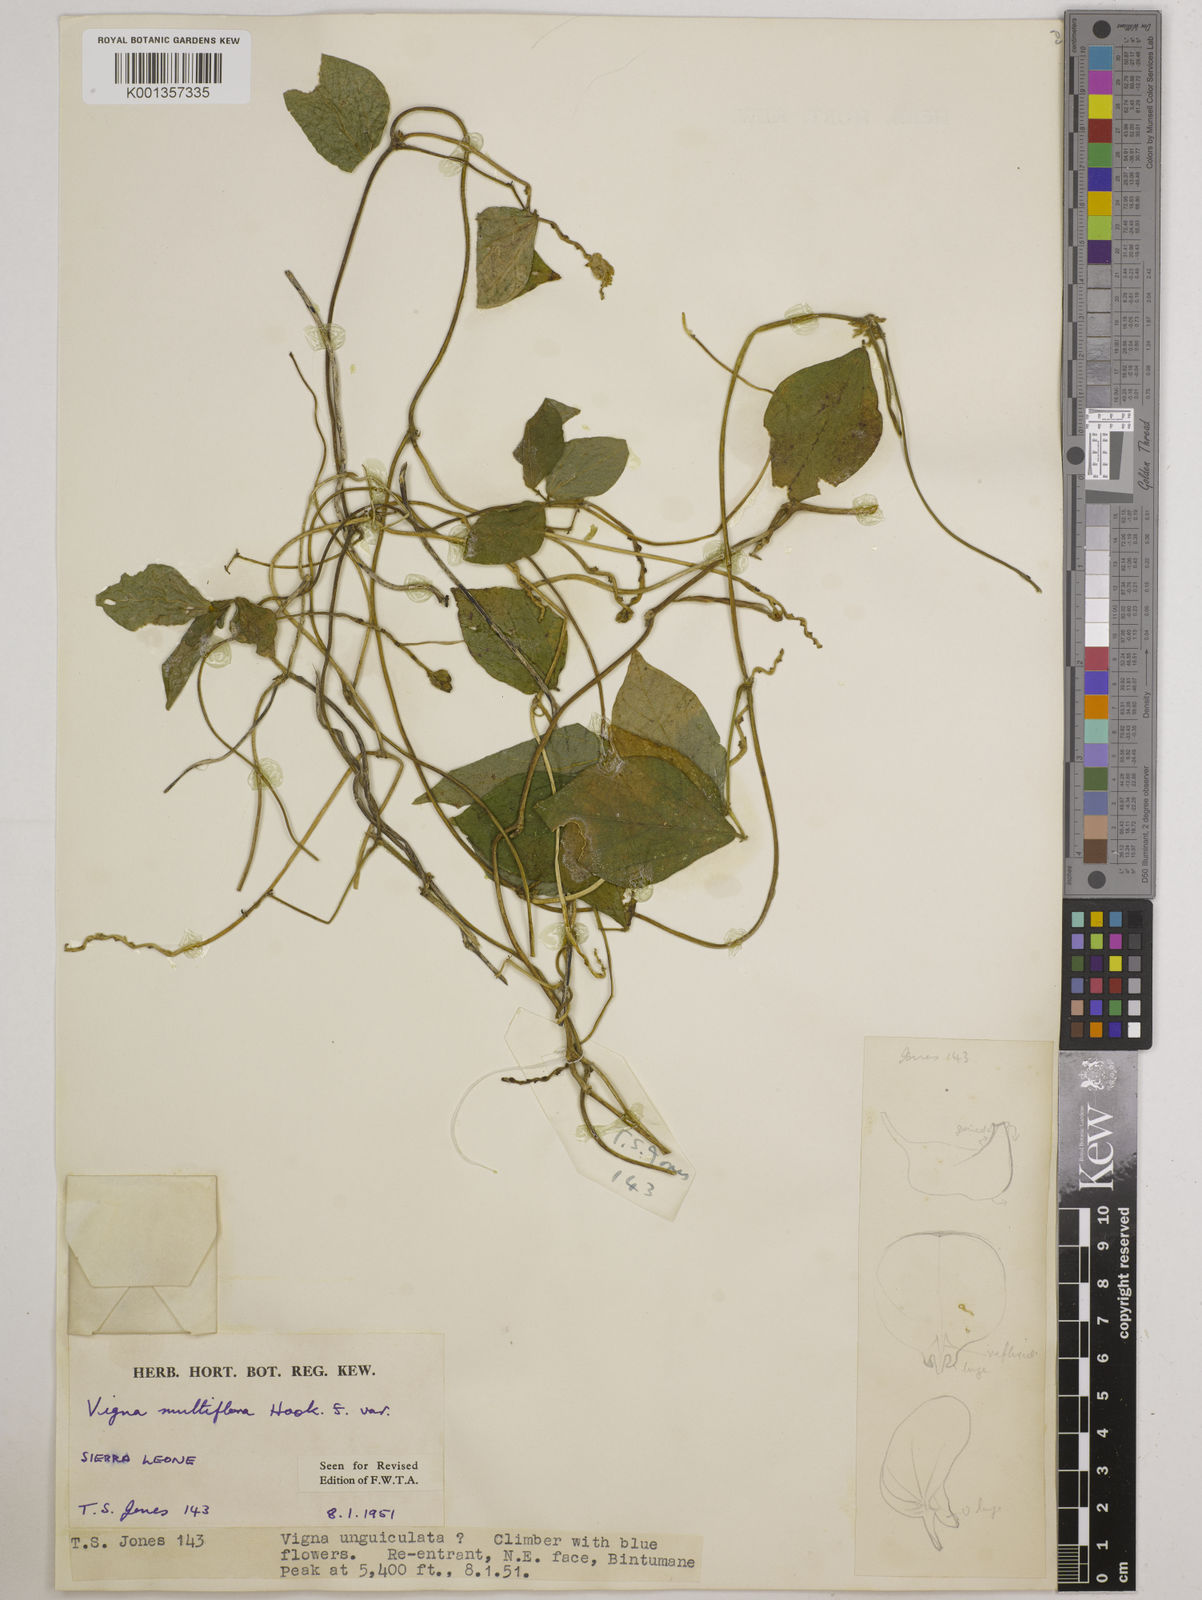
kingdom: Plantae
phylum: Tracheophyta
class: Magnoliopsida
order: Fabales
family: Fabaceae
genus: Vigna
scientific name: Vigna gracilis
